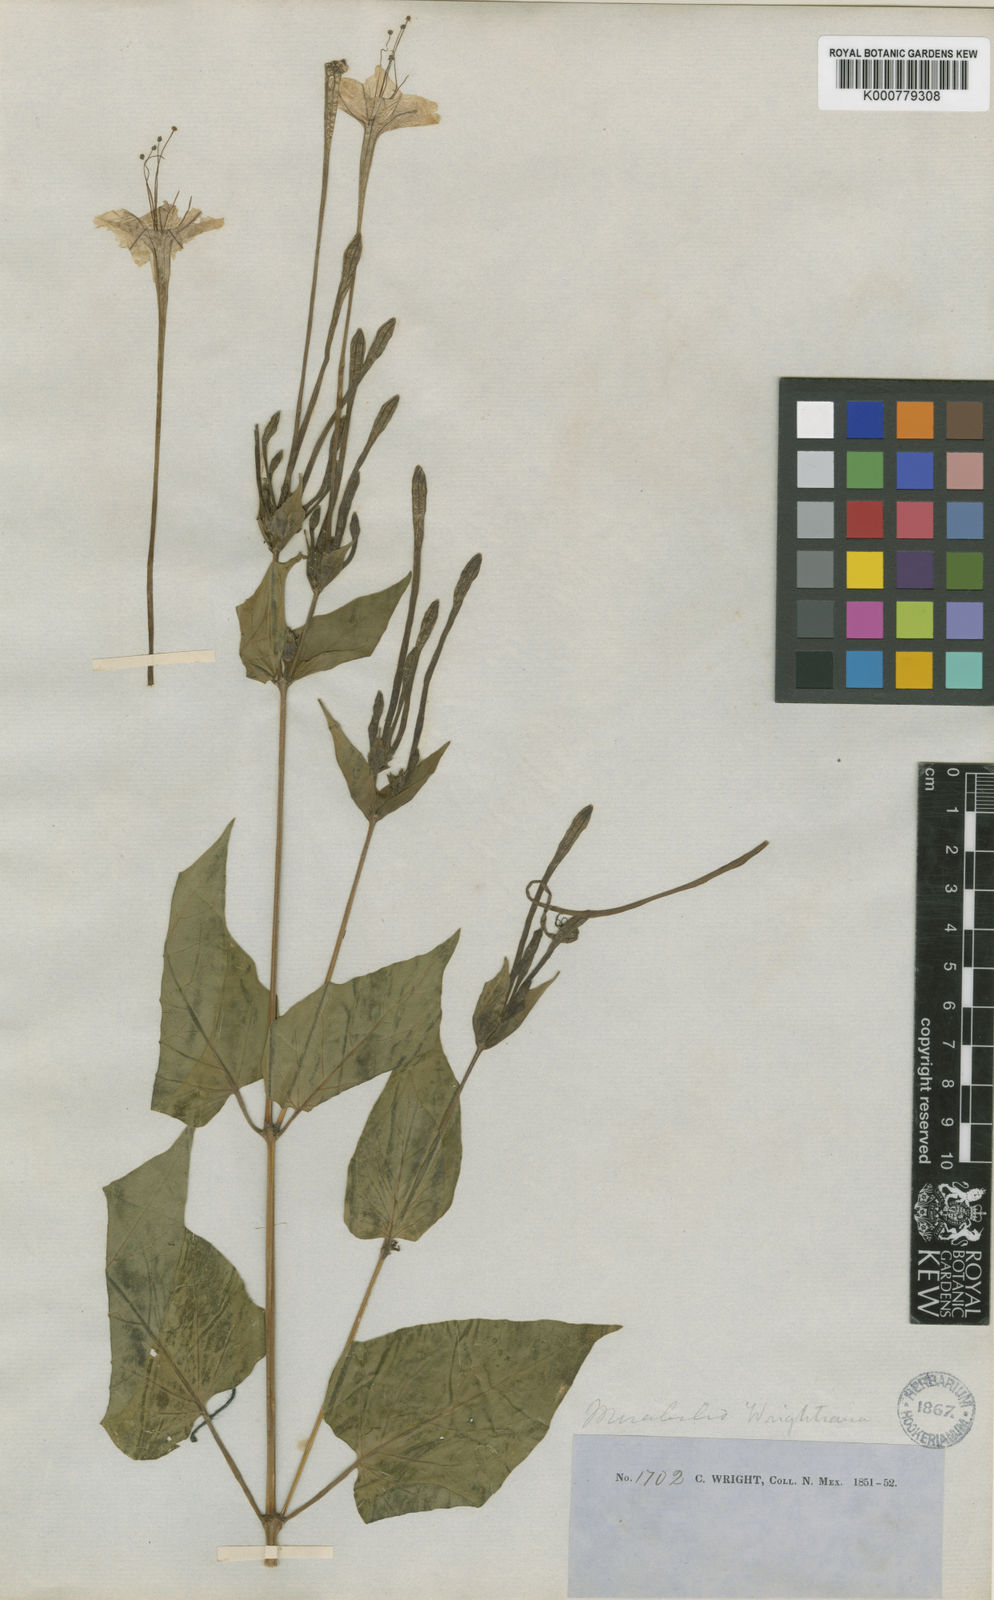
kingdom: Plantae
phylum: Tracheophyta
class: Magnoliopsida
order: Caryophyllales
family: Nyctaginaceae
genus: Mirabilis
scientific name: Mirabilis longiflora
